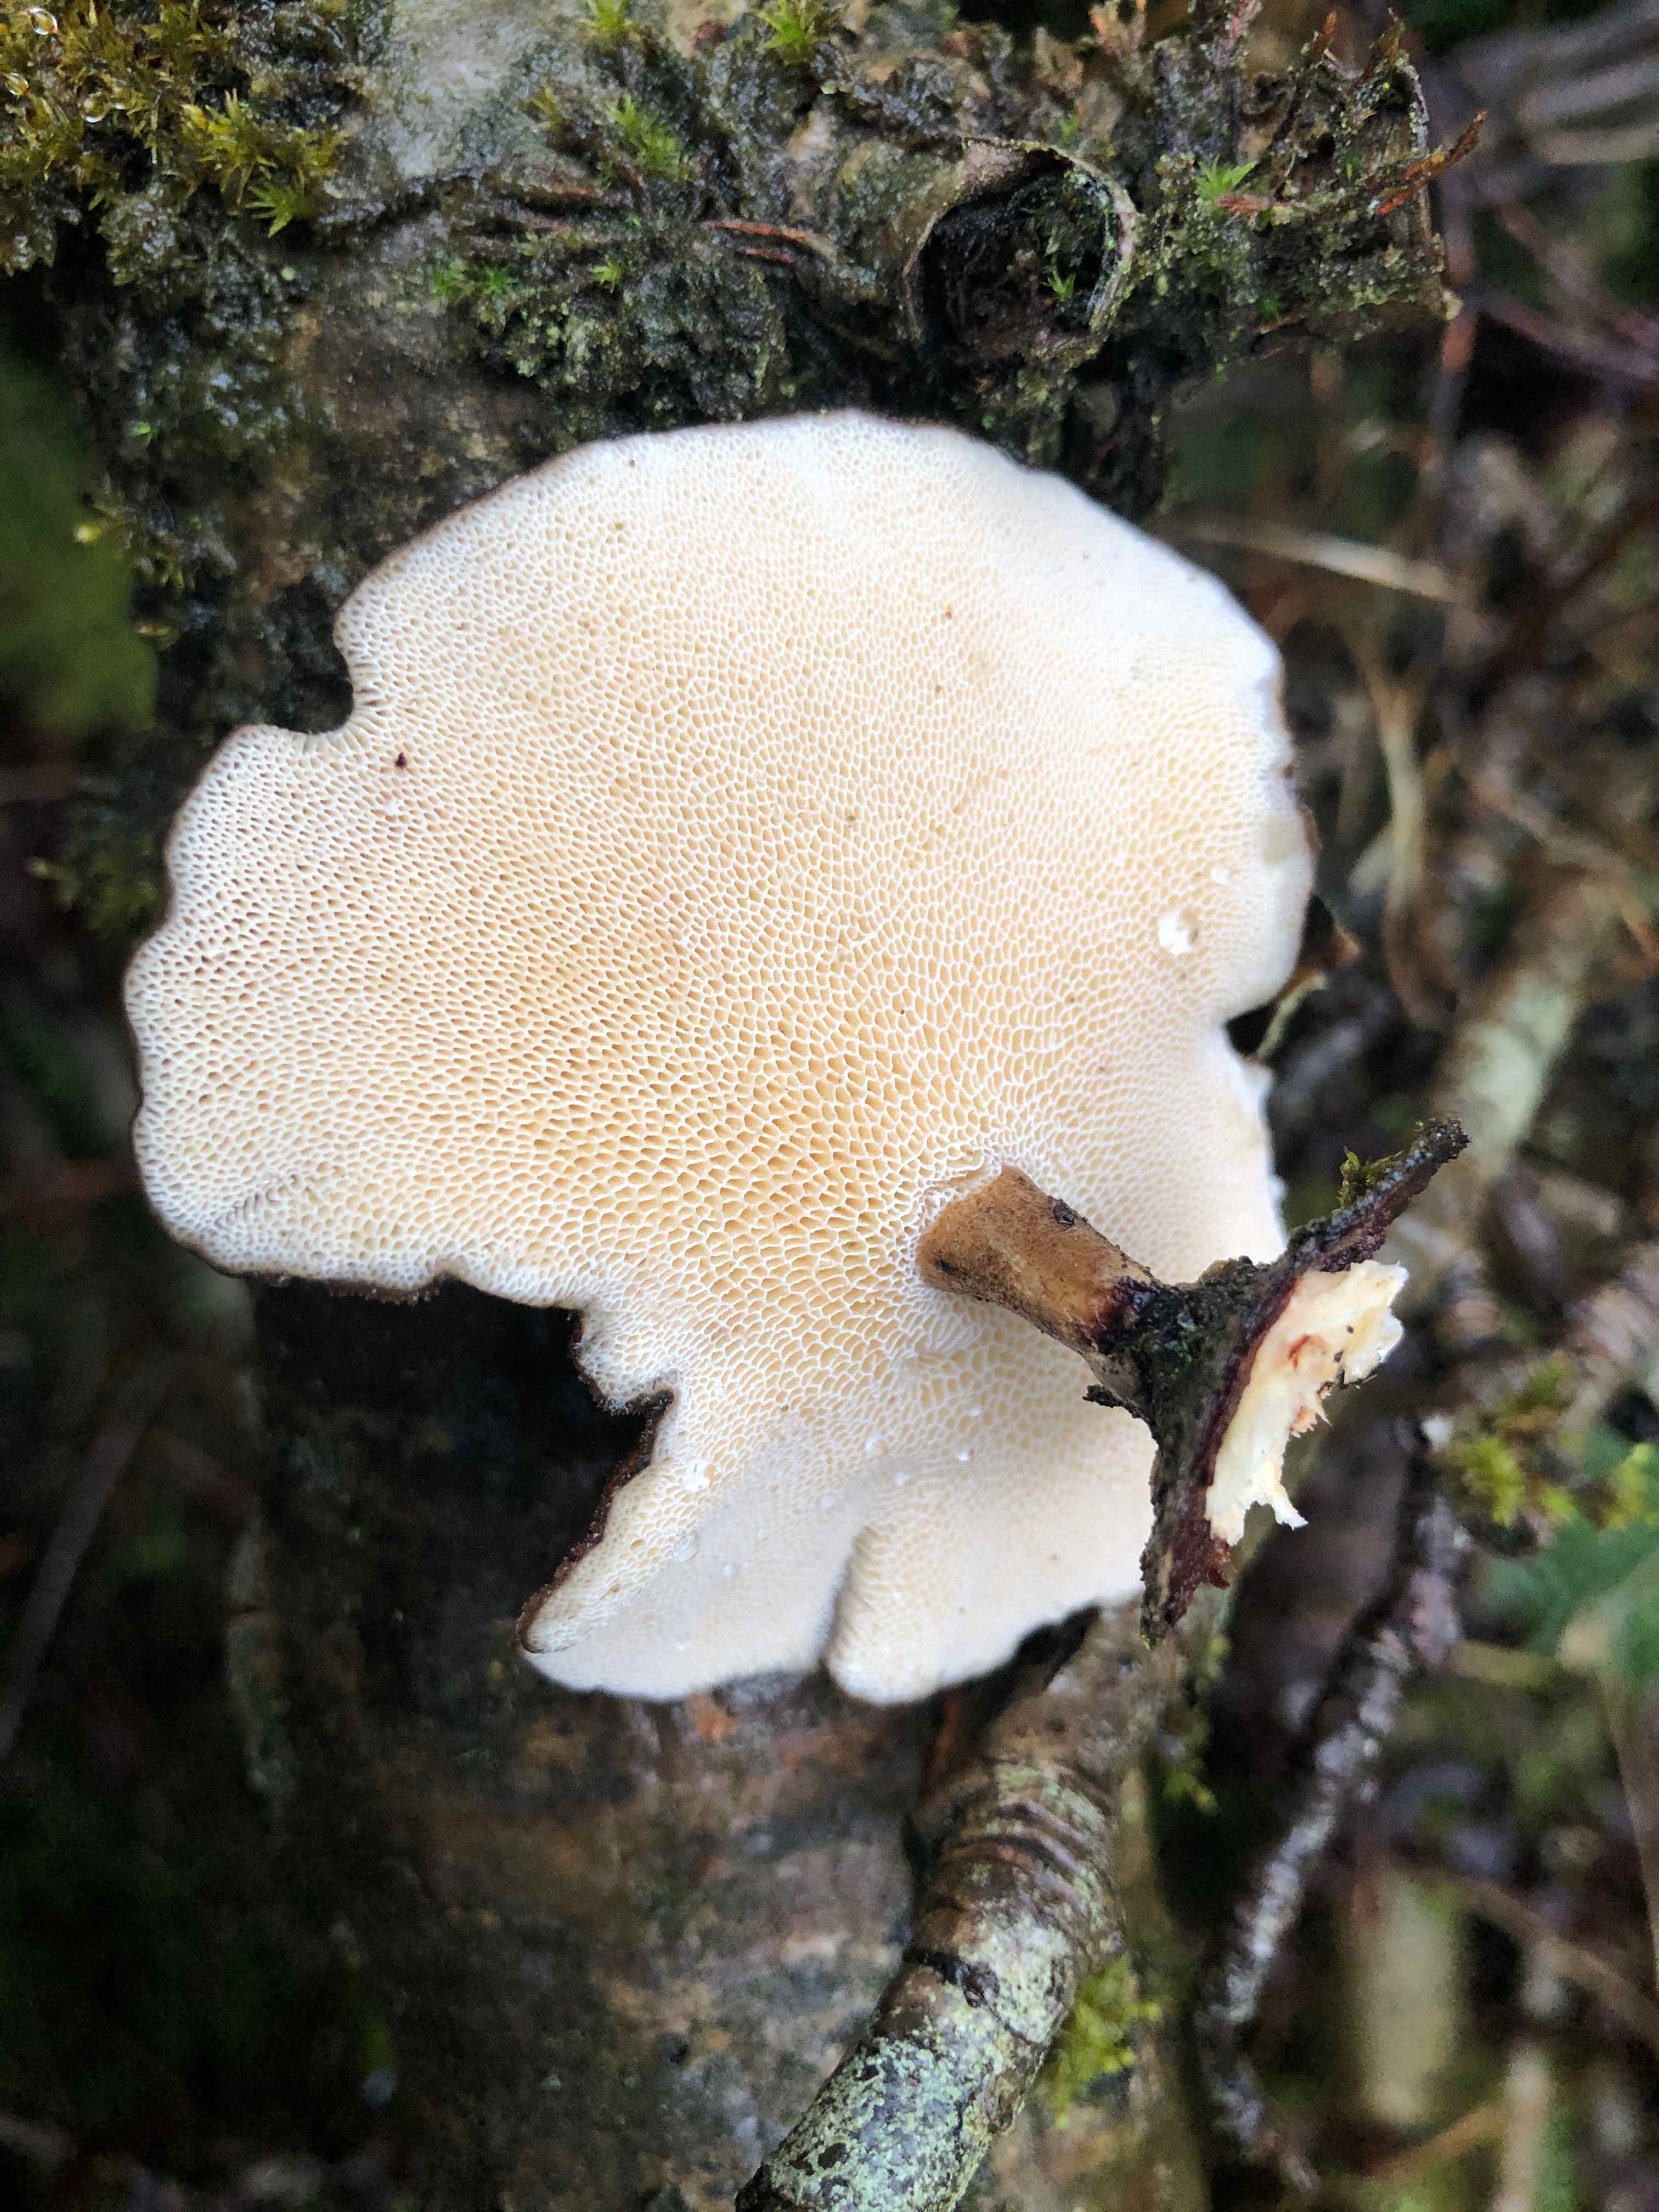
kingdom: Fungi
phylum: Basidiomycota
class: Agaricomycetes
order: Polyporales
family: Polyporaceae
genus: Lentinus
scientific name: Lentinus brumalis
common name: vinter-stilkporesvamp
